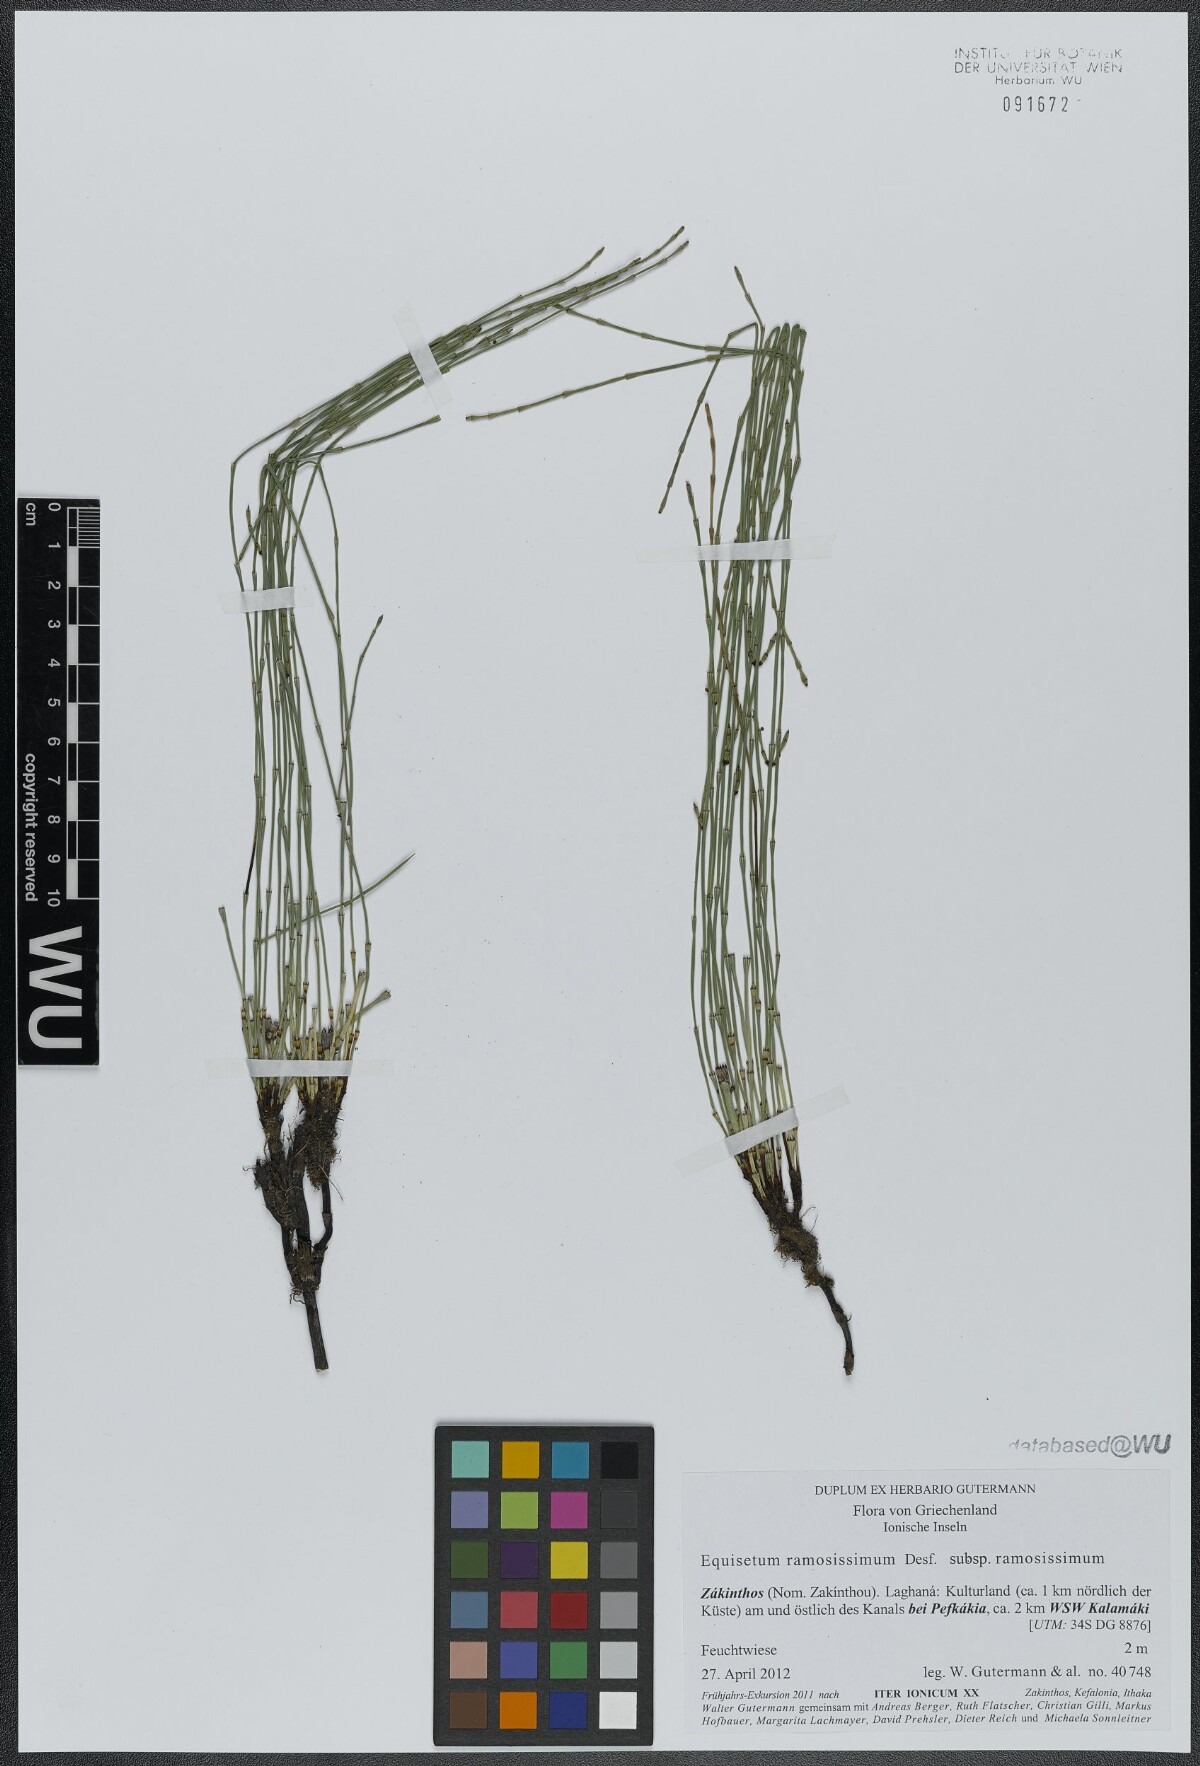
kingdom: Plantae
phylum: Tracheophyta
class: Polypodiopsida
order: Equisetales
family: Equisetaceae
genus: Equisetum
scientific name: Equisetum ramosissimum
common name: Branched horsetail
